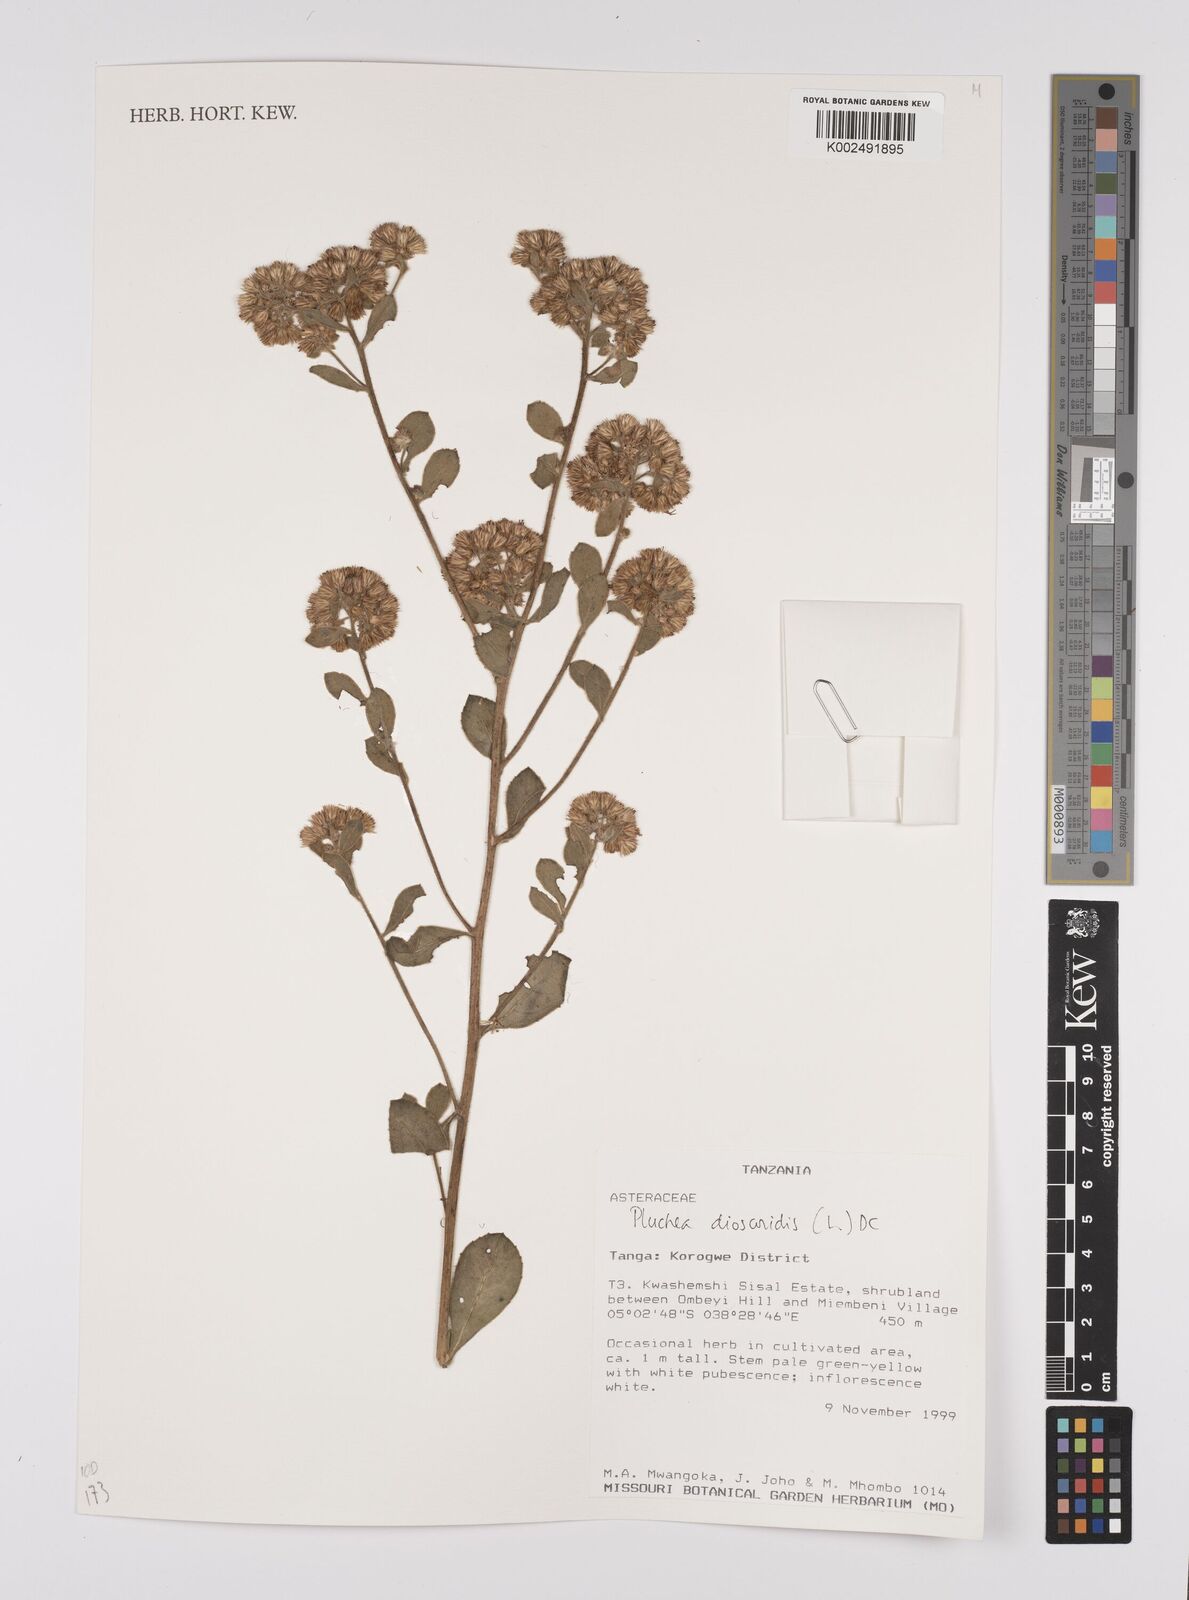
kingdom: Plantae
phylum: Tracheophyta
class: Magnoliopsida
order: Asterales
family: Asteraceae
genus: Pluchea
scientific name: Pluchea dioscoridis
